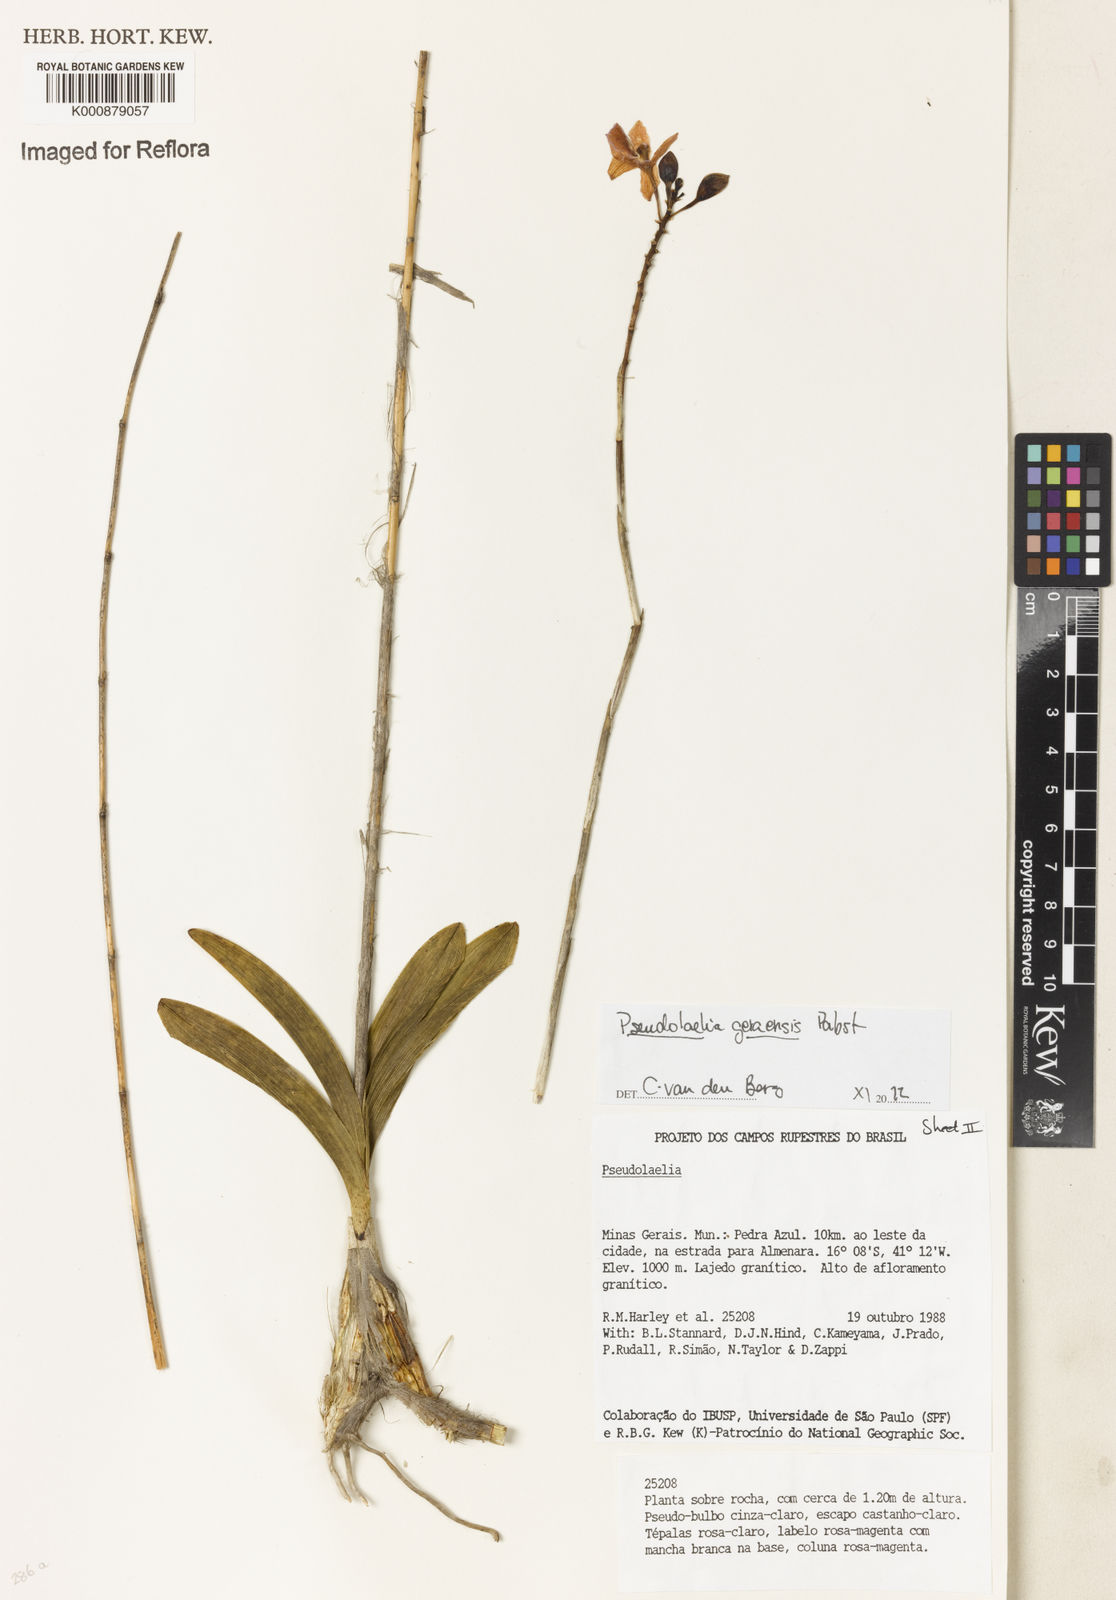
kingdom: Plantae
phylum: Tracheophyta
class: Liliopsida
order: Asparagales
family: Orchidaceae
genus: Pseudolaelia
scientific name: Pseudolaelia geraensis
